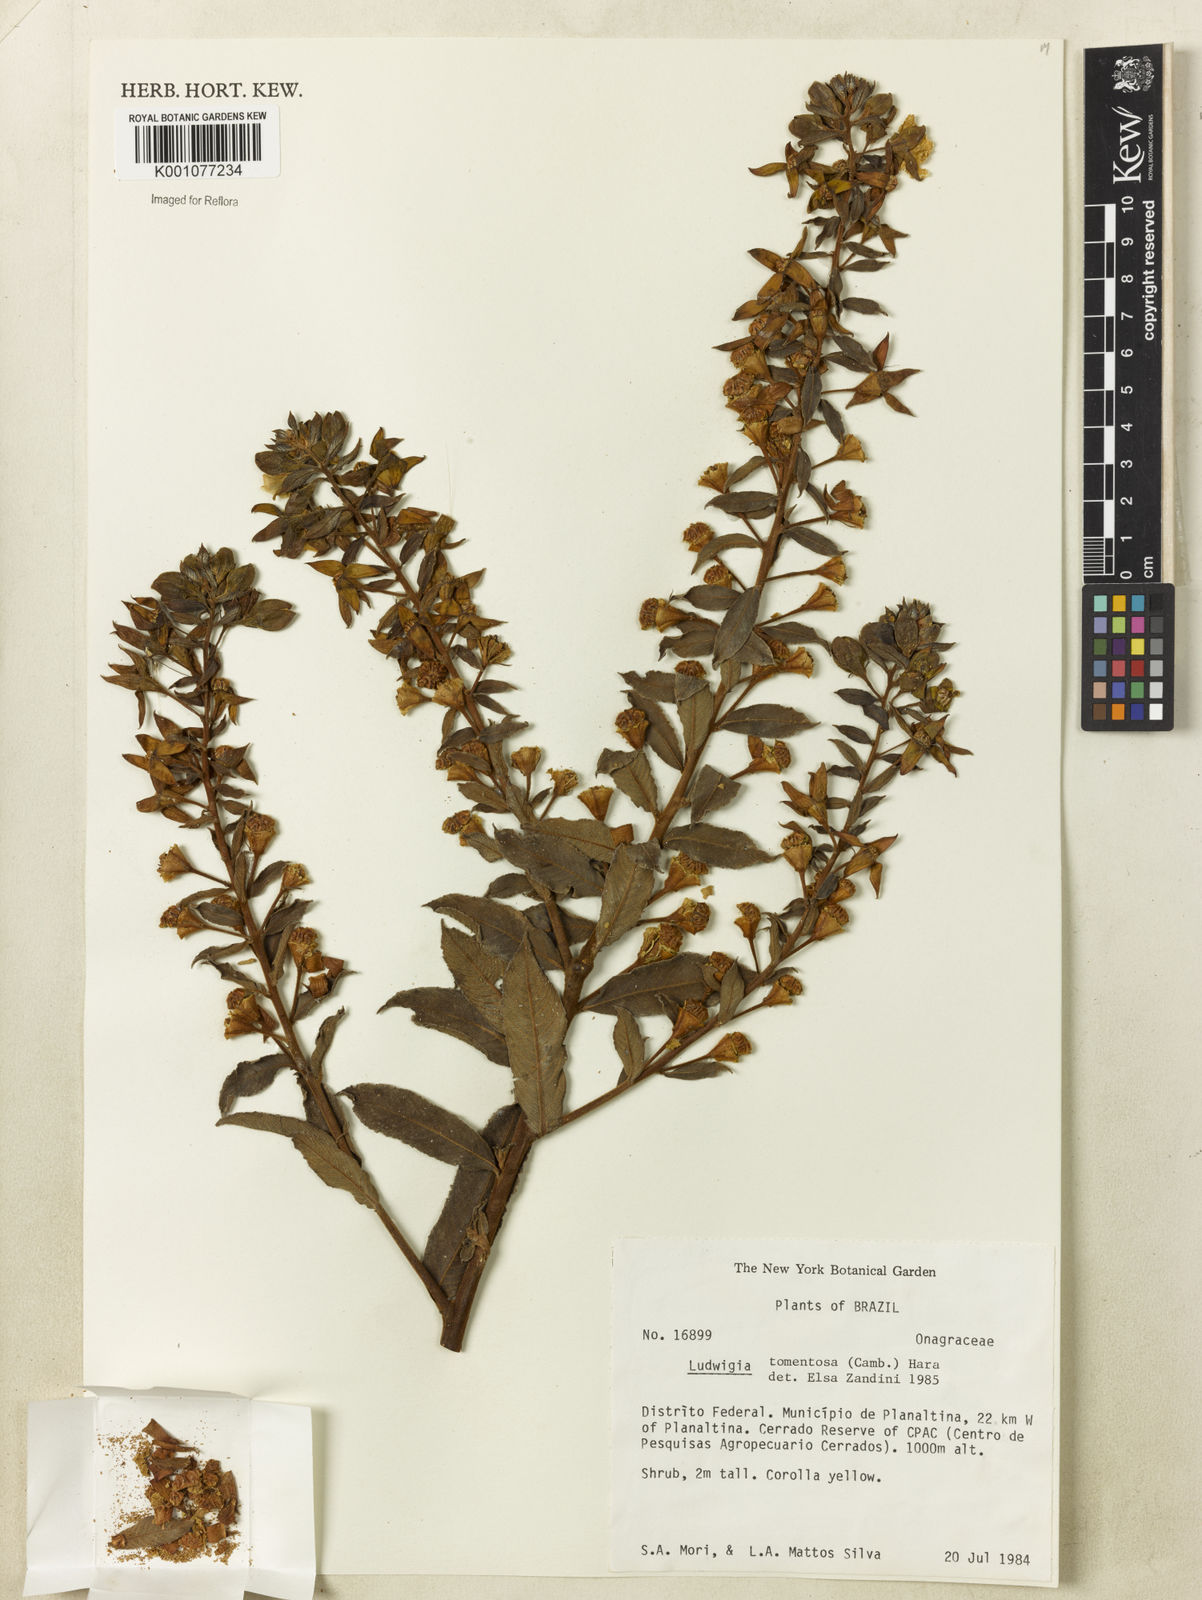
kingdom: Plantae
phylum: Tracheophyta
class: Magnoliopsida
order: Myrtales
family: Onagraceae
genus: Ludwigia
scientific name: Ludwigia tomentosa
